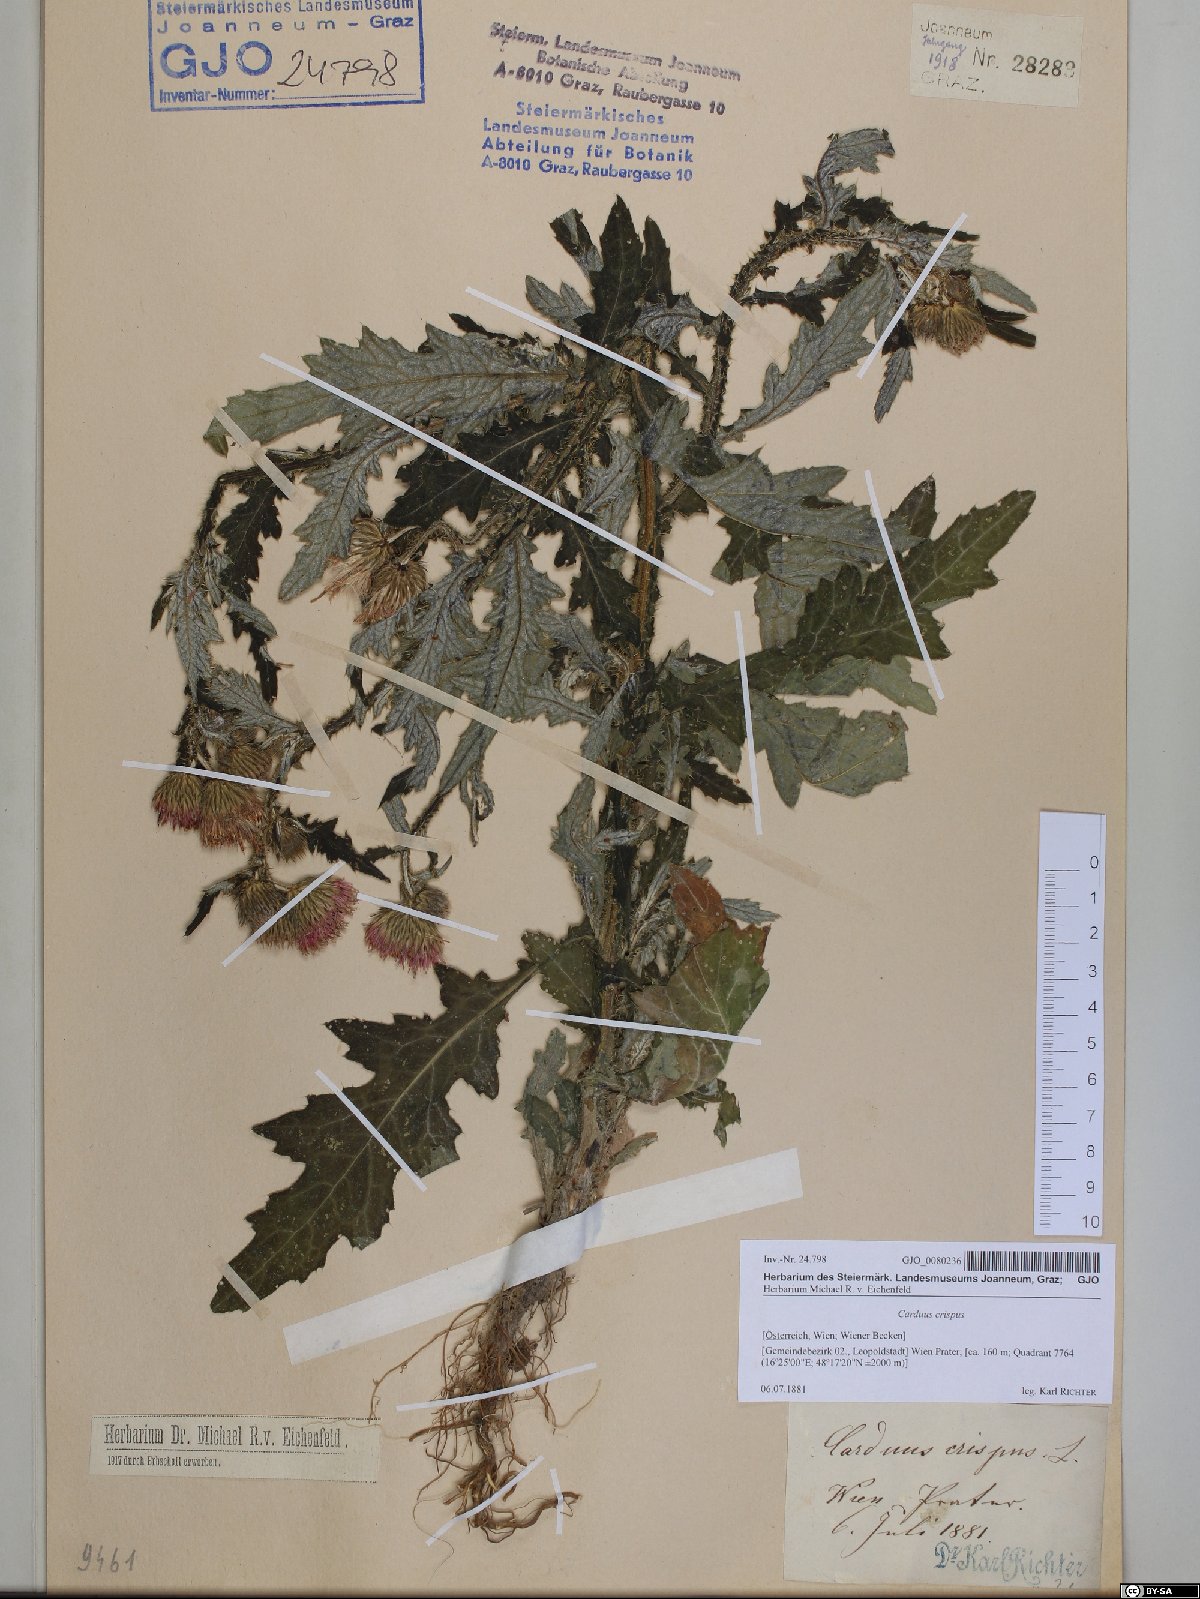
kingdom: Plantae
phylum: Tracheophyta
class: Magnoliopsida
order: Asterales
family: Asteraceae
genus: Carduus
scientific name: Carduus crispus
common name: Welted thistle
